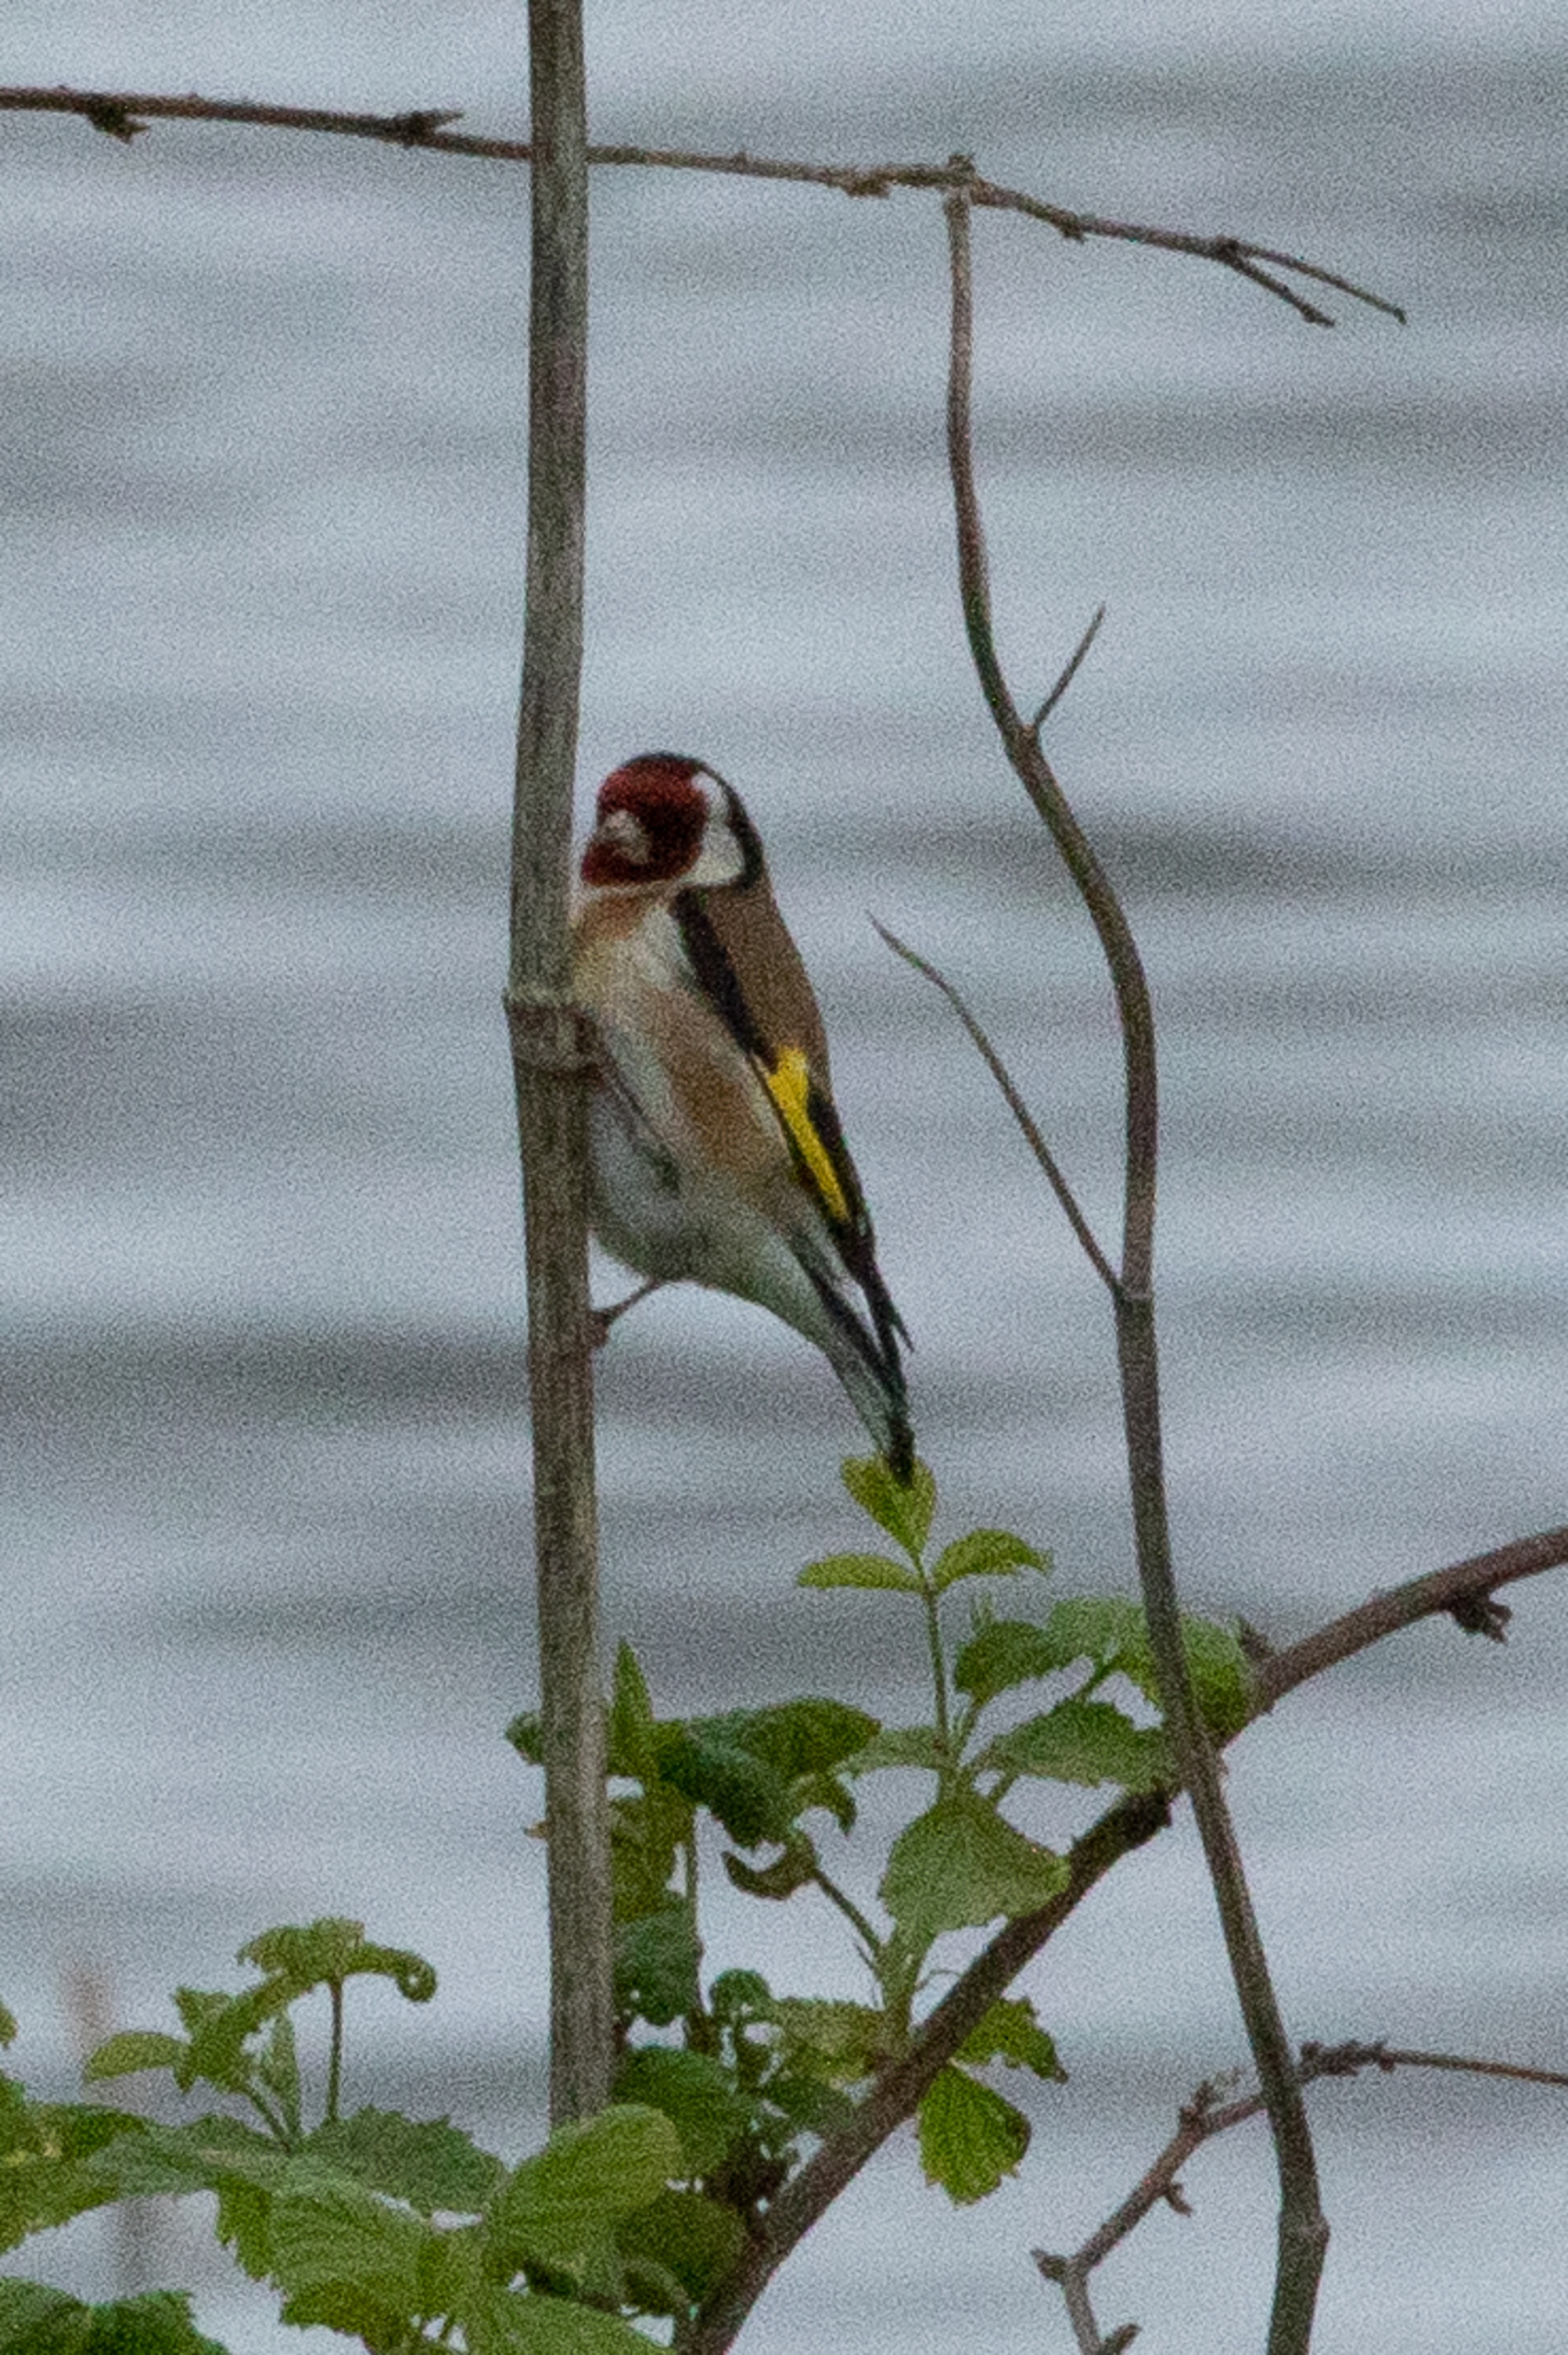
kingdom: Animalia
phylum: Chordata
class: Aves
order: Passeriformes
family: Fringillidae
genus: Carduelis
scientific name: Carduelis carduelis
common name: Stillits
